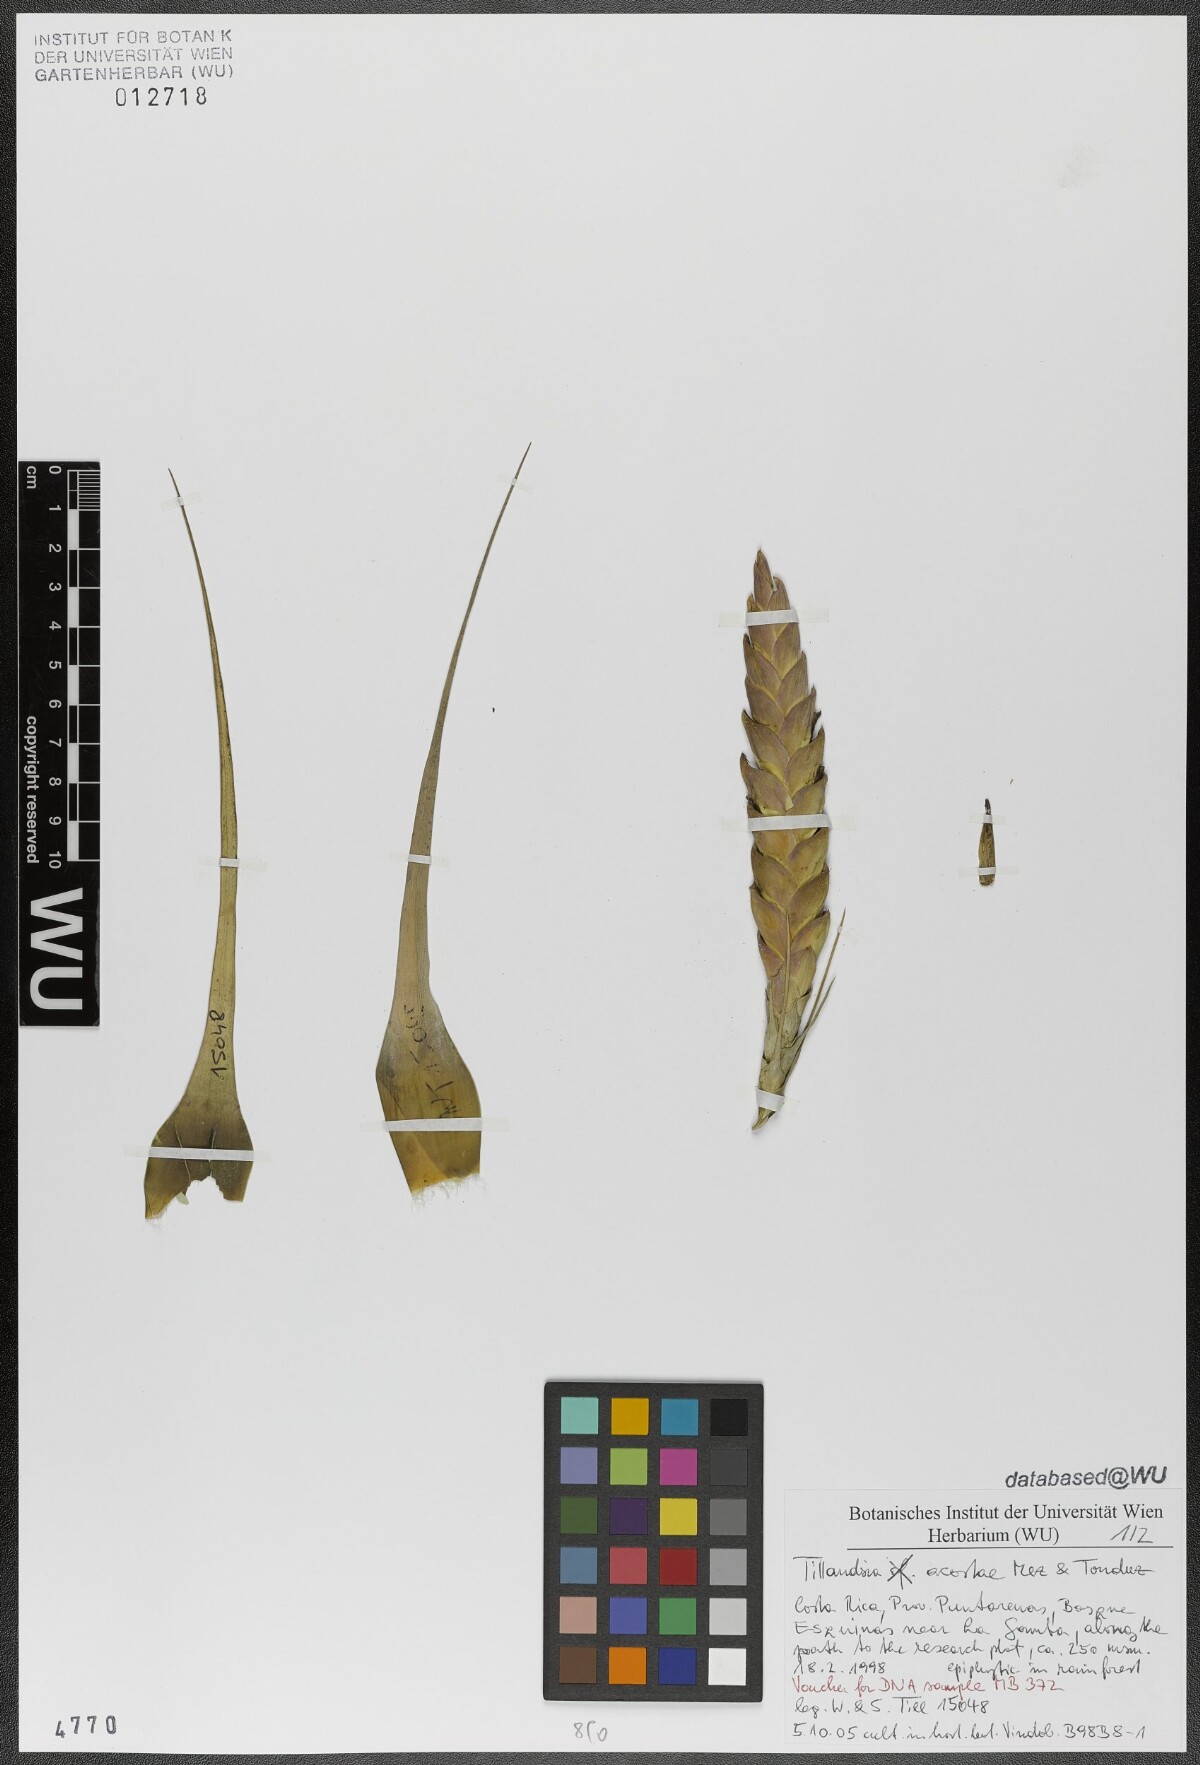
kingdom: Plantae
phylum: Tracheophyta
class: Liliopsida
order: Poales
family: Bromeliaceae
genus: Tillandsia
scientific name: Tillandsia rhomboidea
